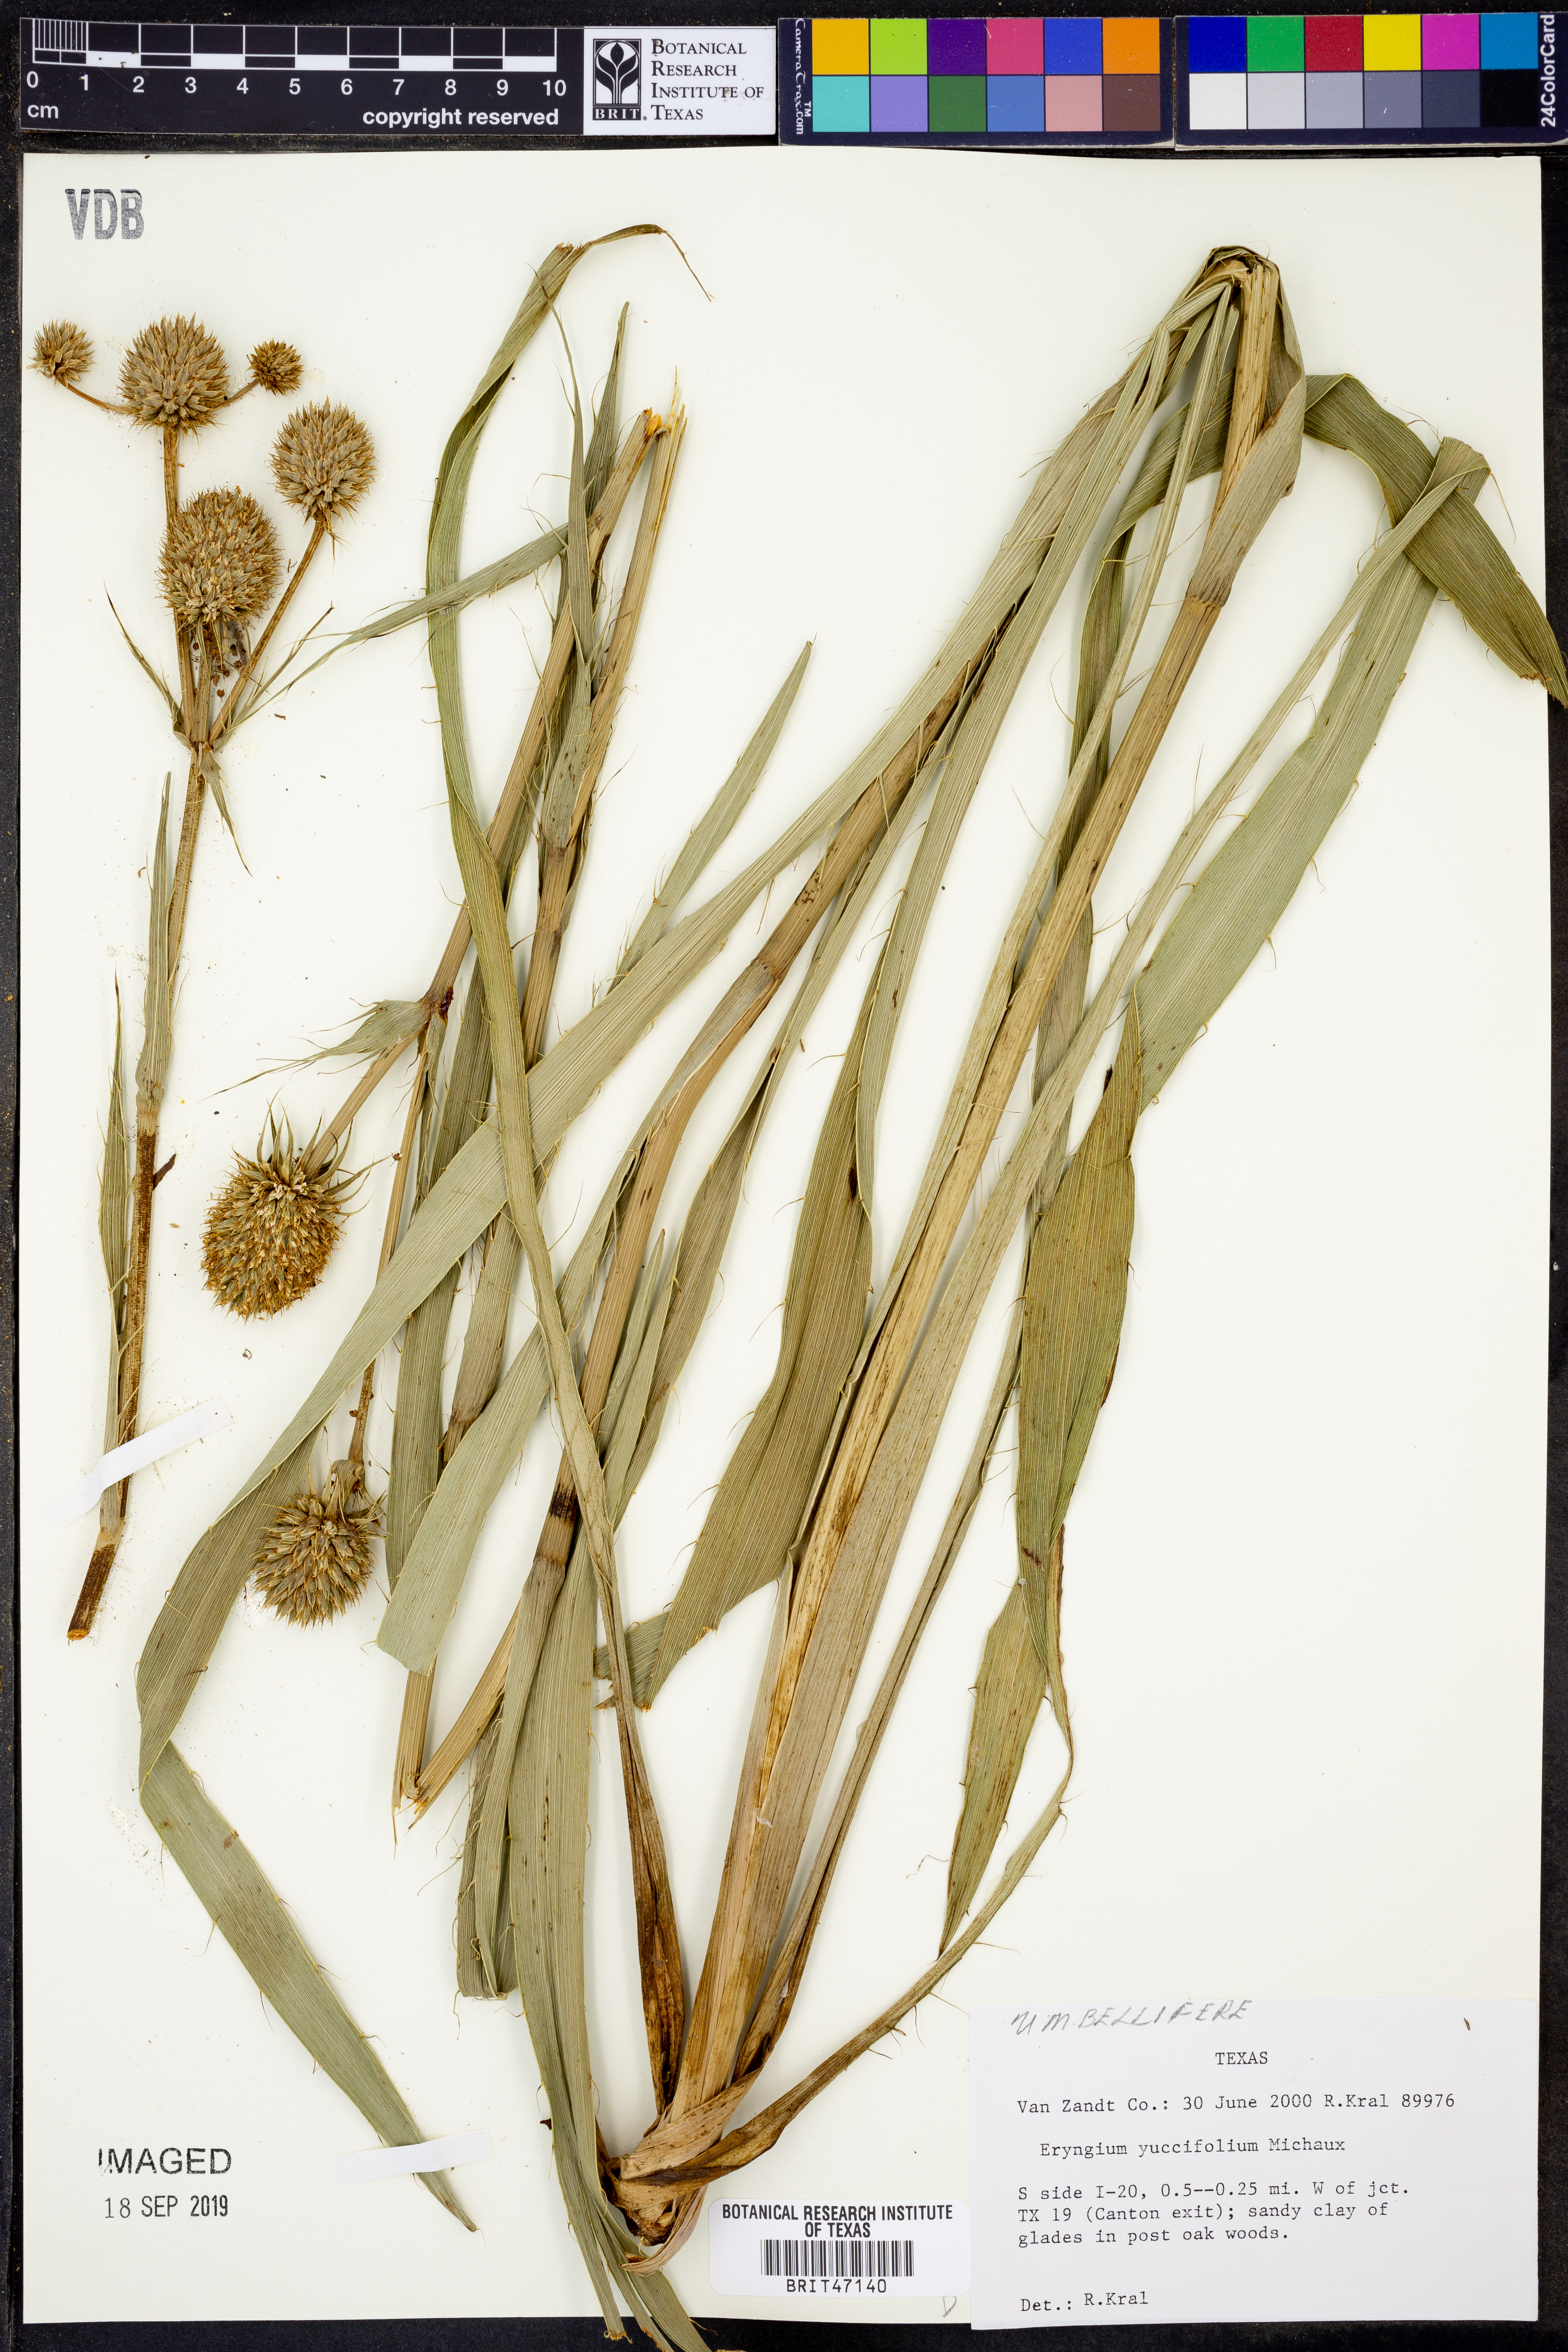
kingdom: Plantae
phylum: Tracheophyta
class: Magnoliopsida
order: Apiales
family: Apiaceae
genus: Eryngium
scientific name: Eryngium yuccifolium
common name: Button eryngo
